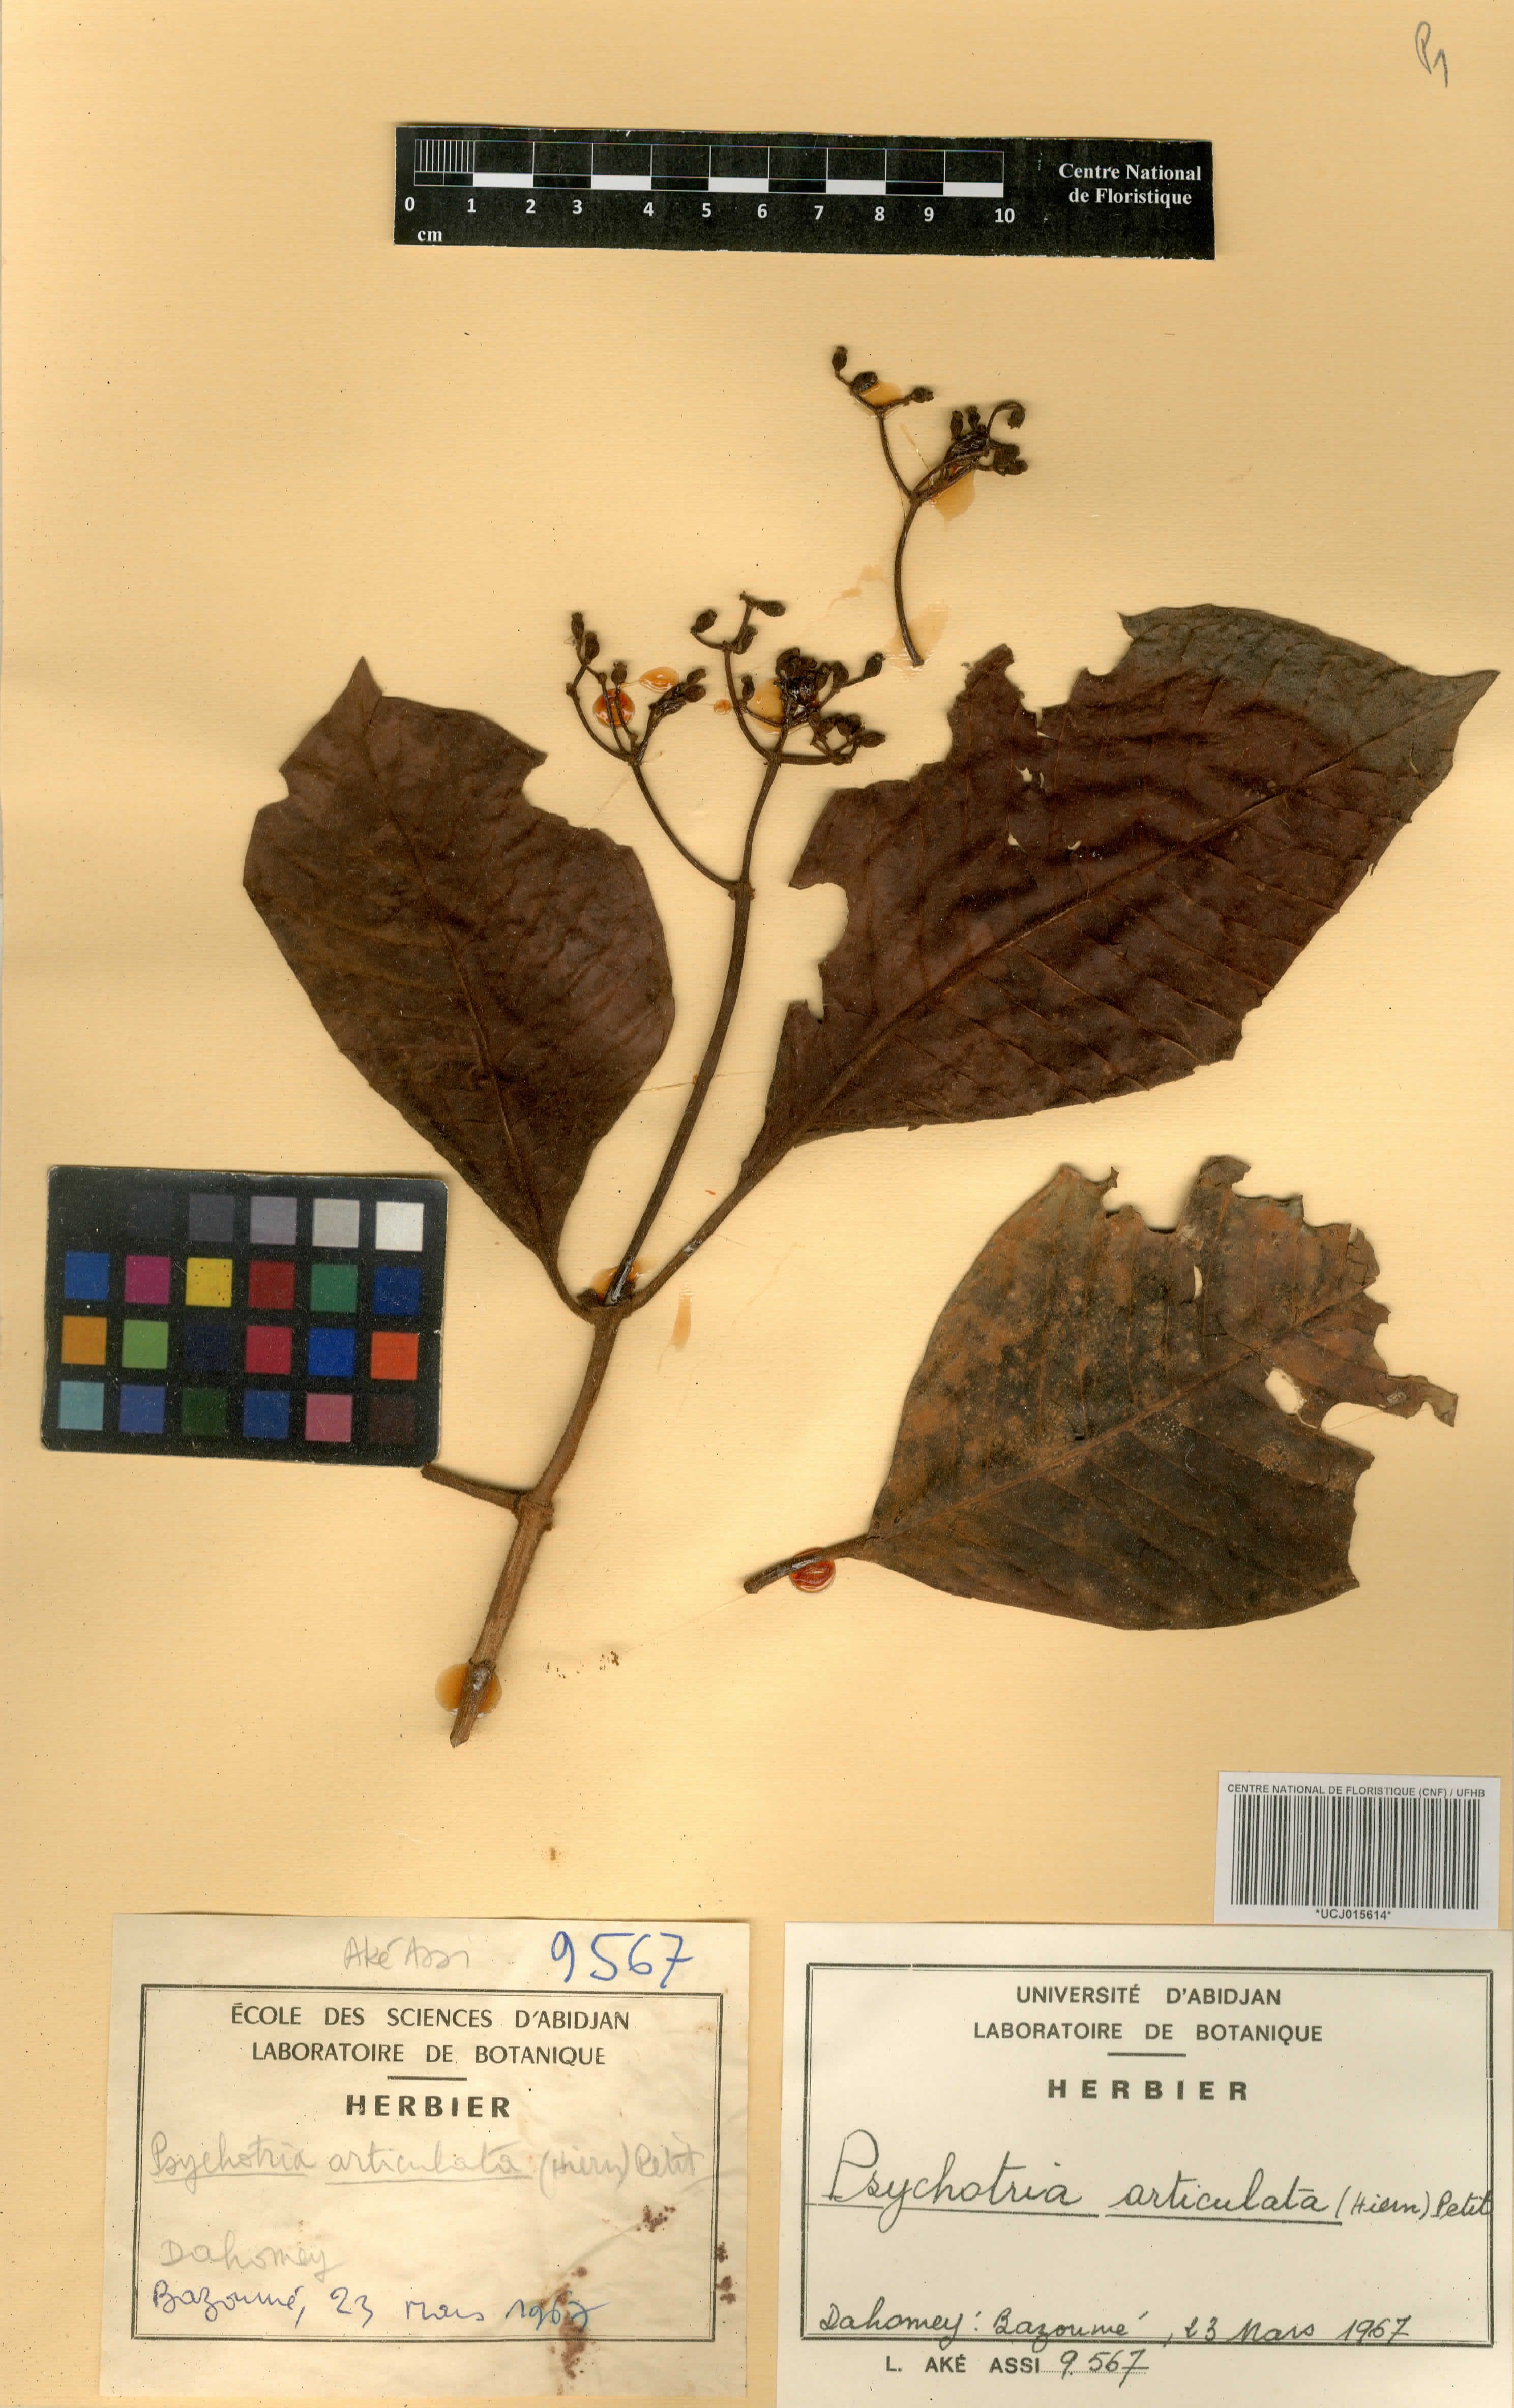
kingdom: Plantae
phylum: Tracheophyta
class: Magnoliopsida
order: Gentianales
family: Rubiaceae
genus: Psychotria
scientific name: Psychotria articulata
